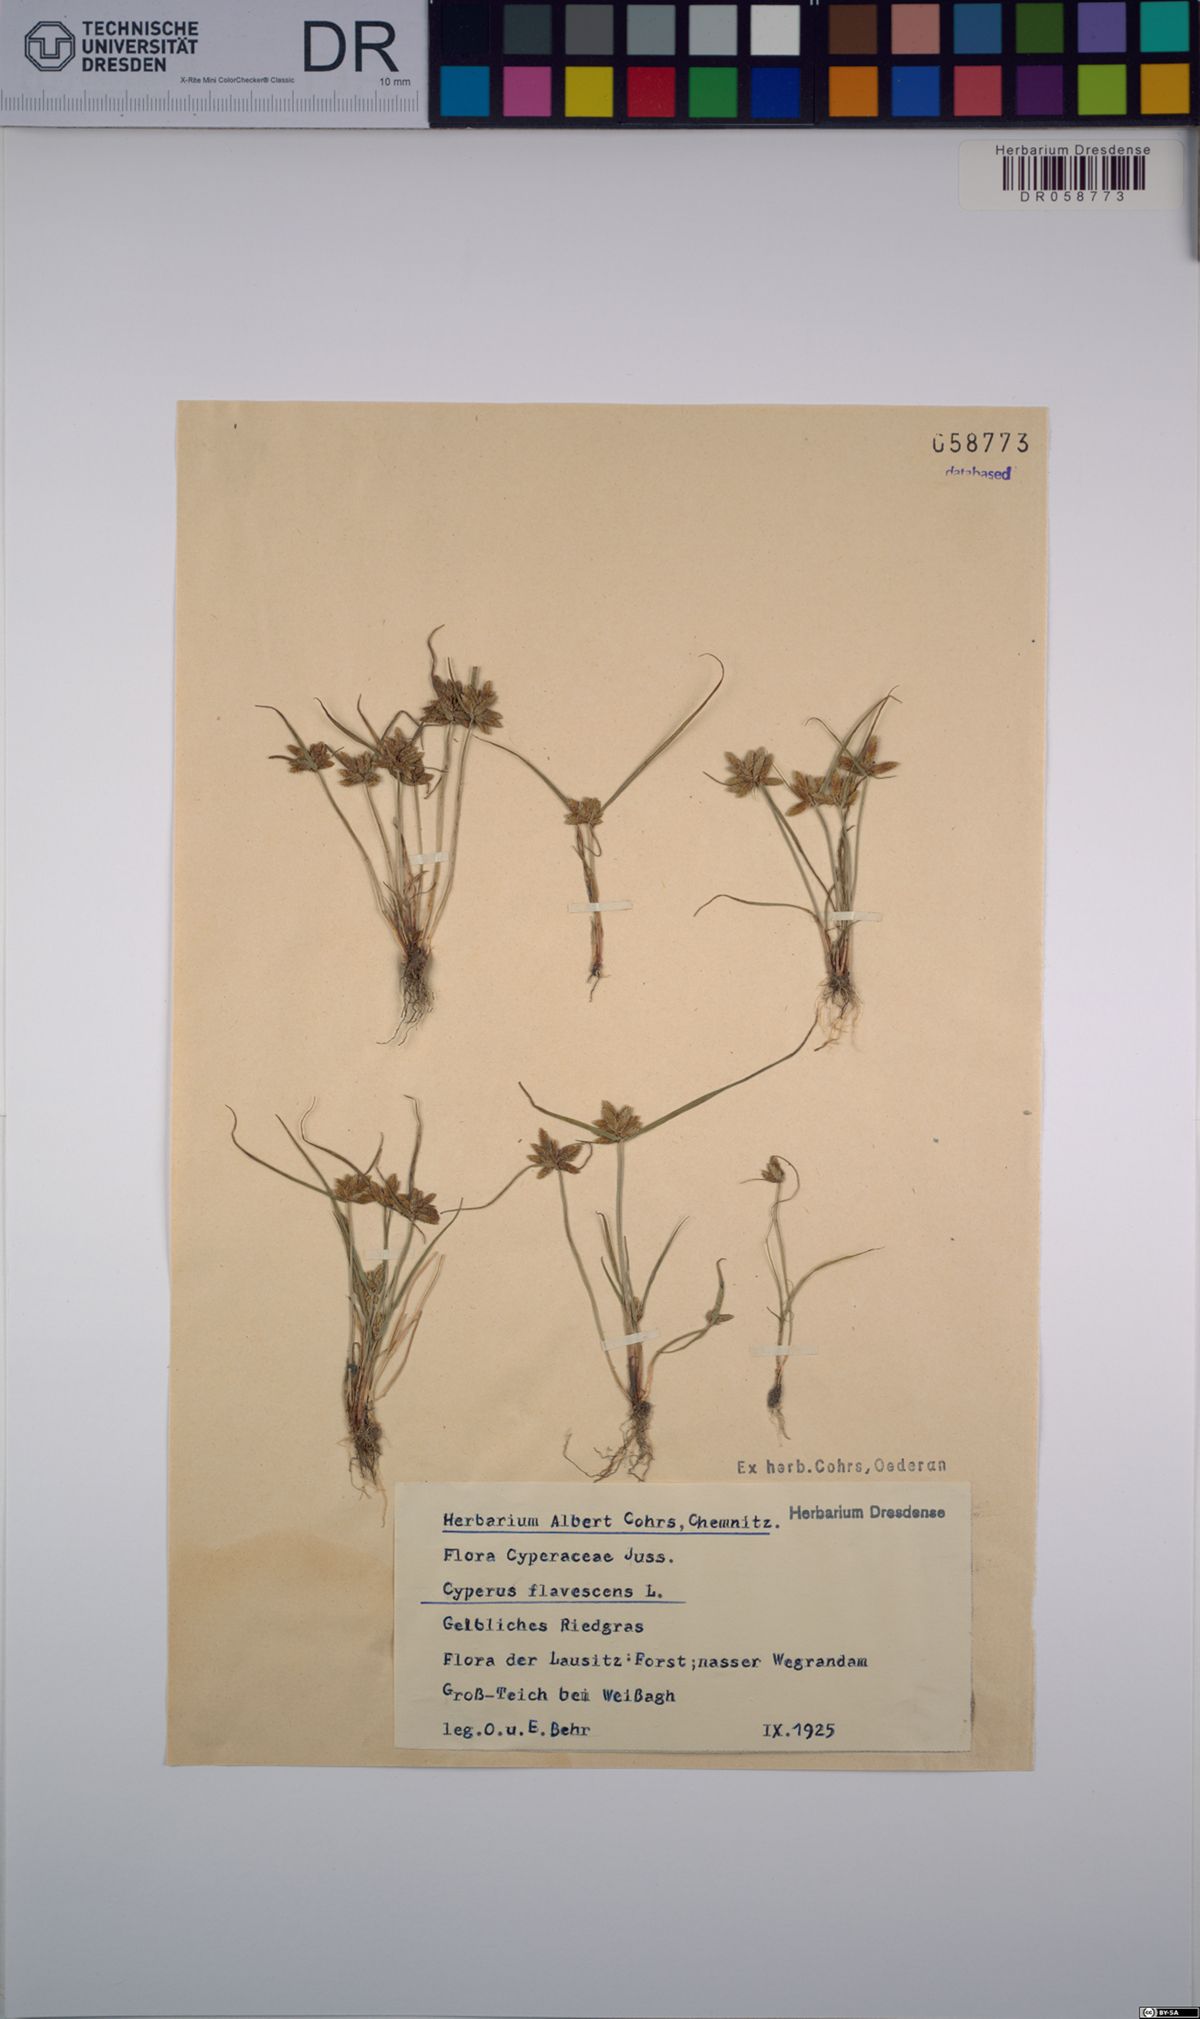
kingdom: Plantae
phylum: Tracheophyta
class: Liliopsida
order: Poales
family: Cyperaceae
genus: Cyperus
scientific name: Cyperus flavescens
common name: Yellow galingale
